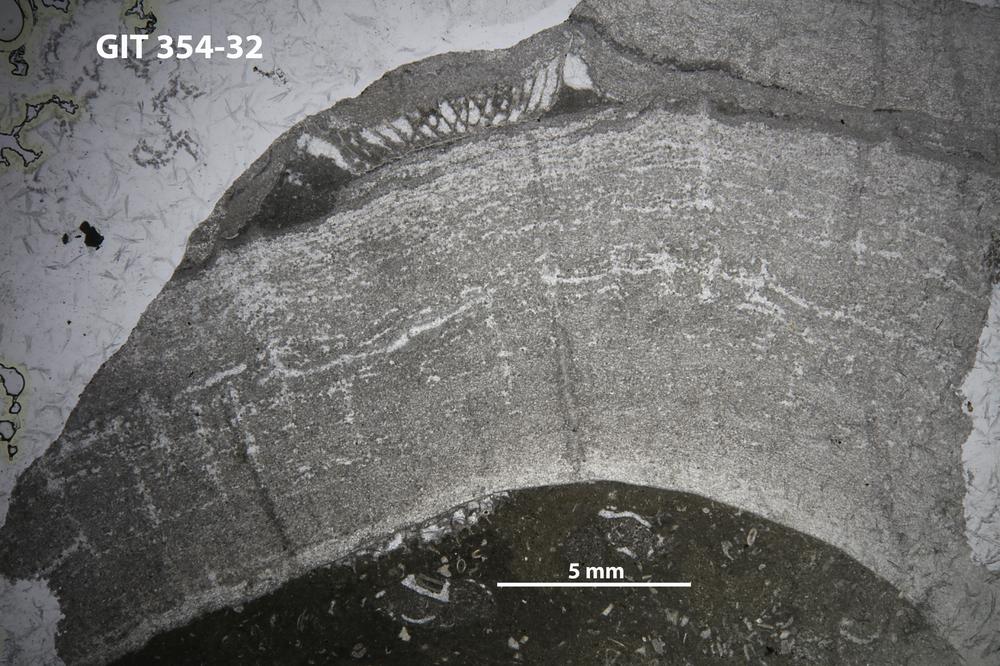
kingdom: Animalia
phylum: Porifera
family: Pseudolabechiidae
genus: Plumatalinia
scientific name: Plumatalinia ferax
